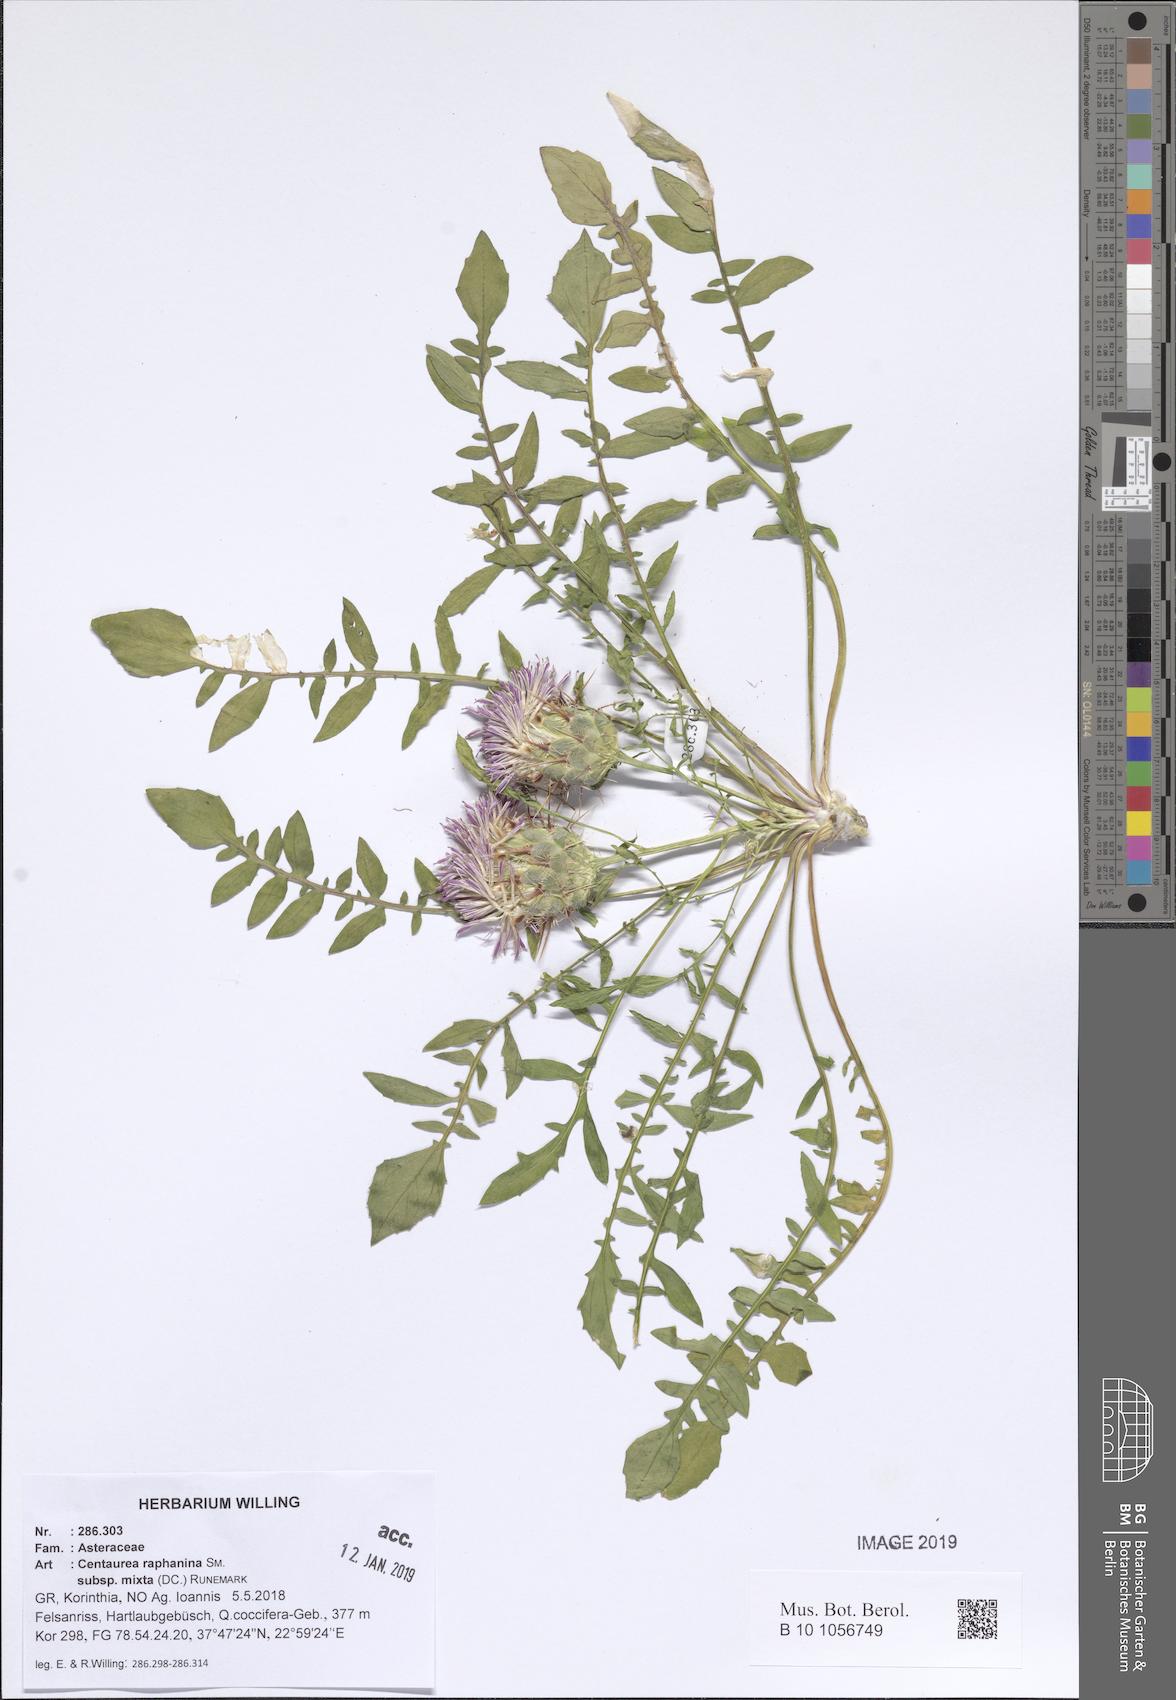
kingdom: Plantae
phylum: Tracheophyta
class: Magnoliopsida
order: Asterales
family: Asteraceae
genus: Centaurea
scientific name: Centaurea raphanina
